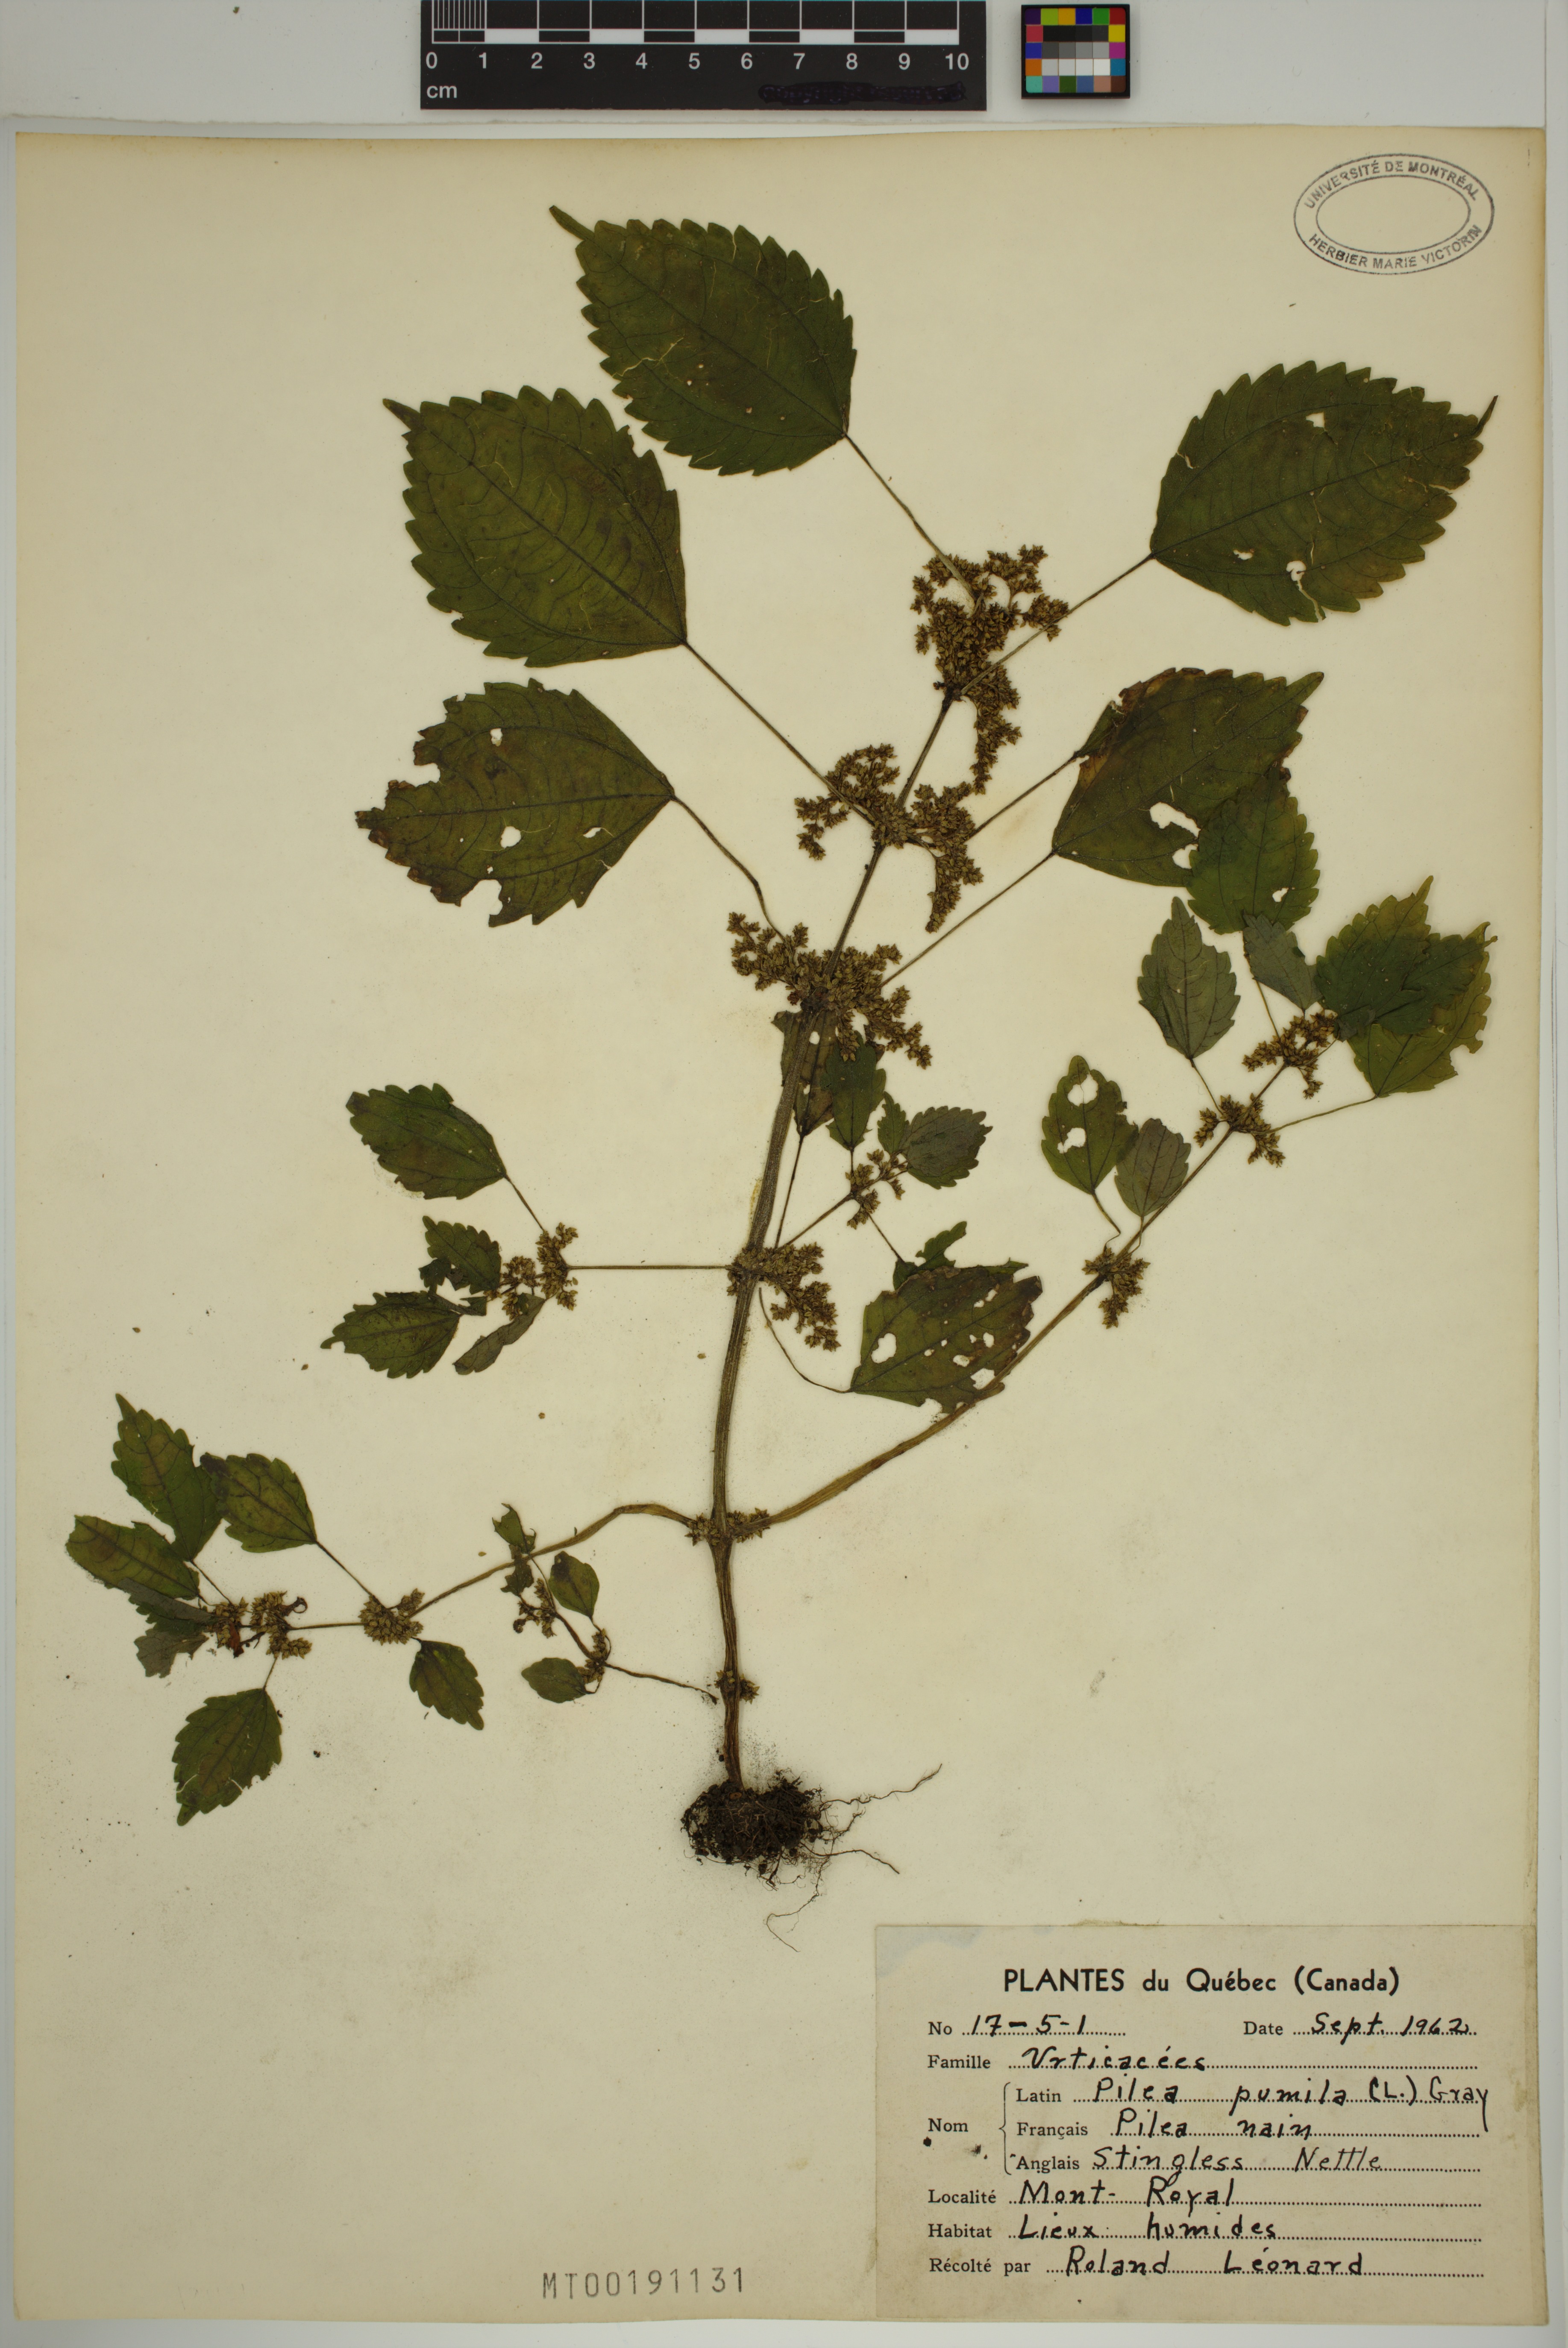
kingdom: Plantae
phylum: Tracheophyta
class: Magnoliopsida
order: Rosales
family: Urticaceae
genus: Pilea
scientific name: Pilea pumila
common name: Clearweed
